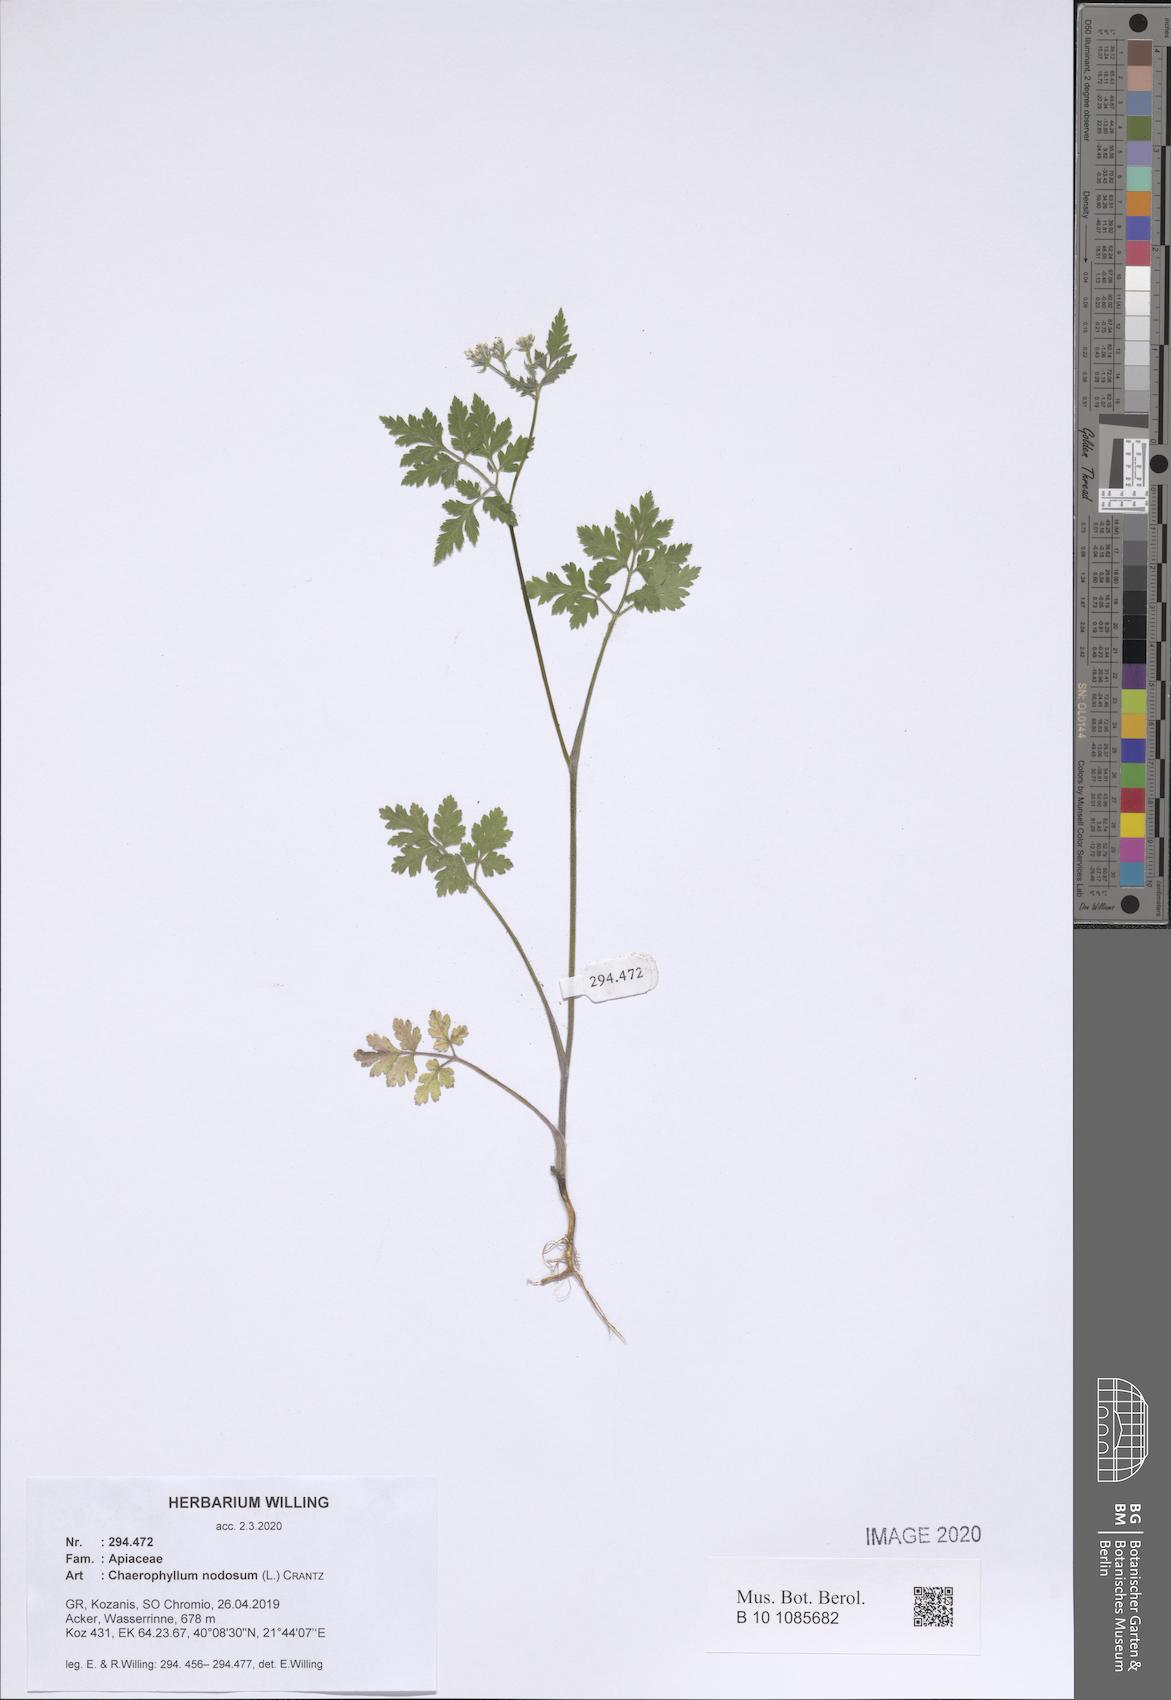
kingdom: Plantae
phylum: Tracheophyta
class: Magnoliopsida
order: Apiales
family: Apiaceae
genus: Chaerophyllum
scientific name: Chaerophyllum nodosum
